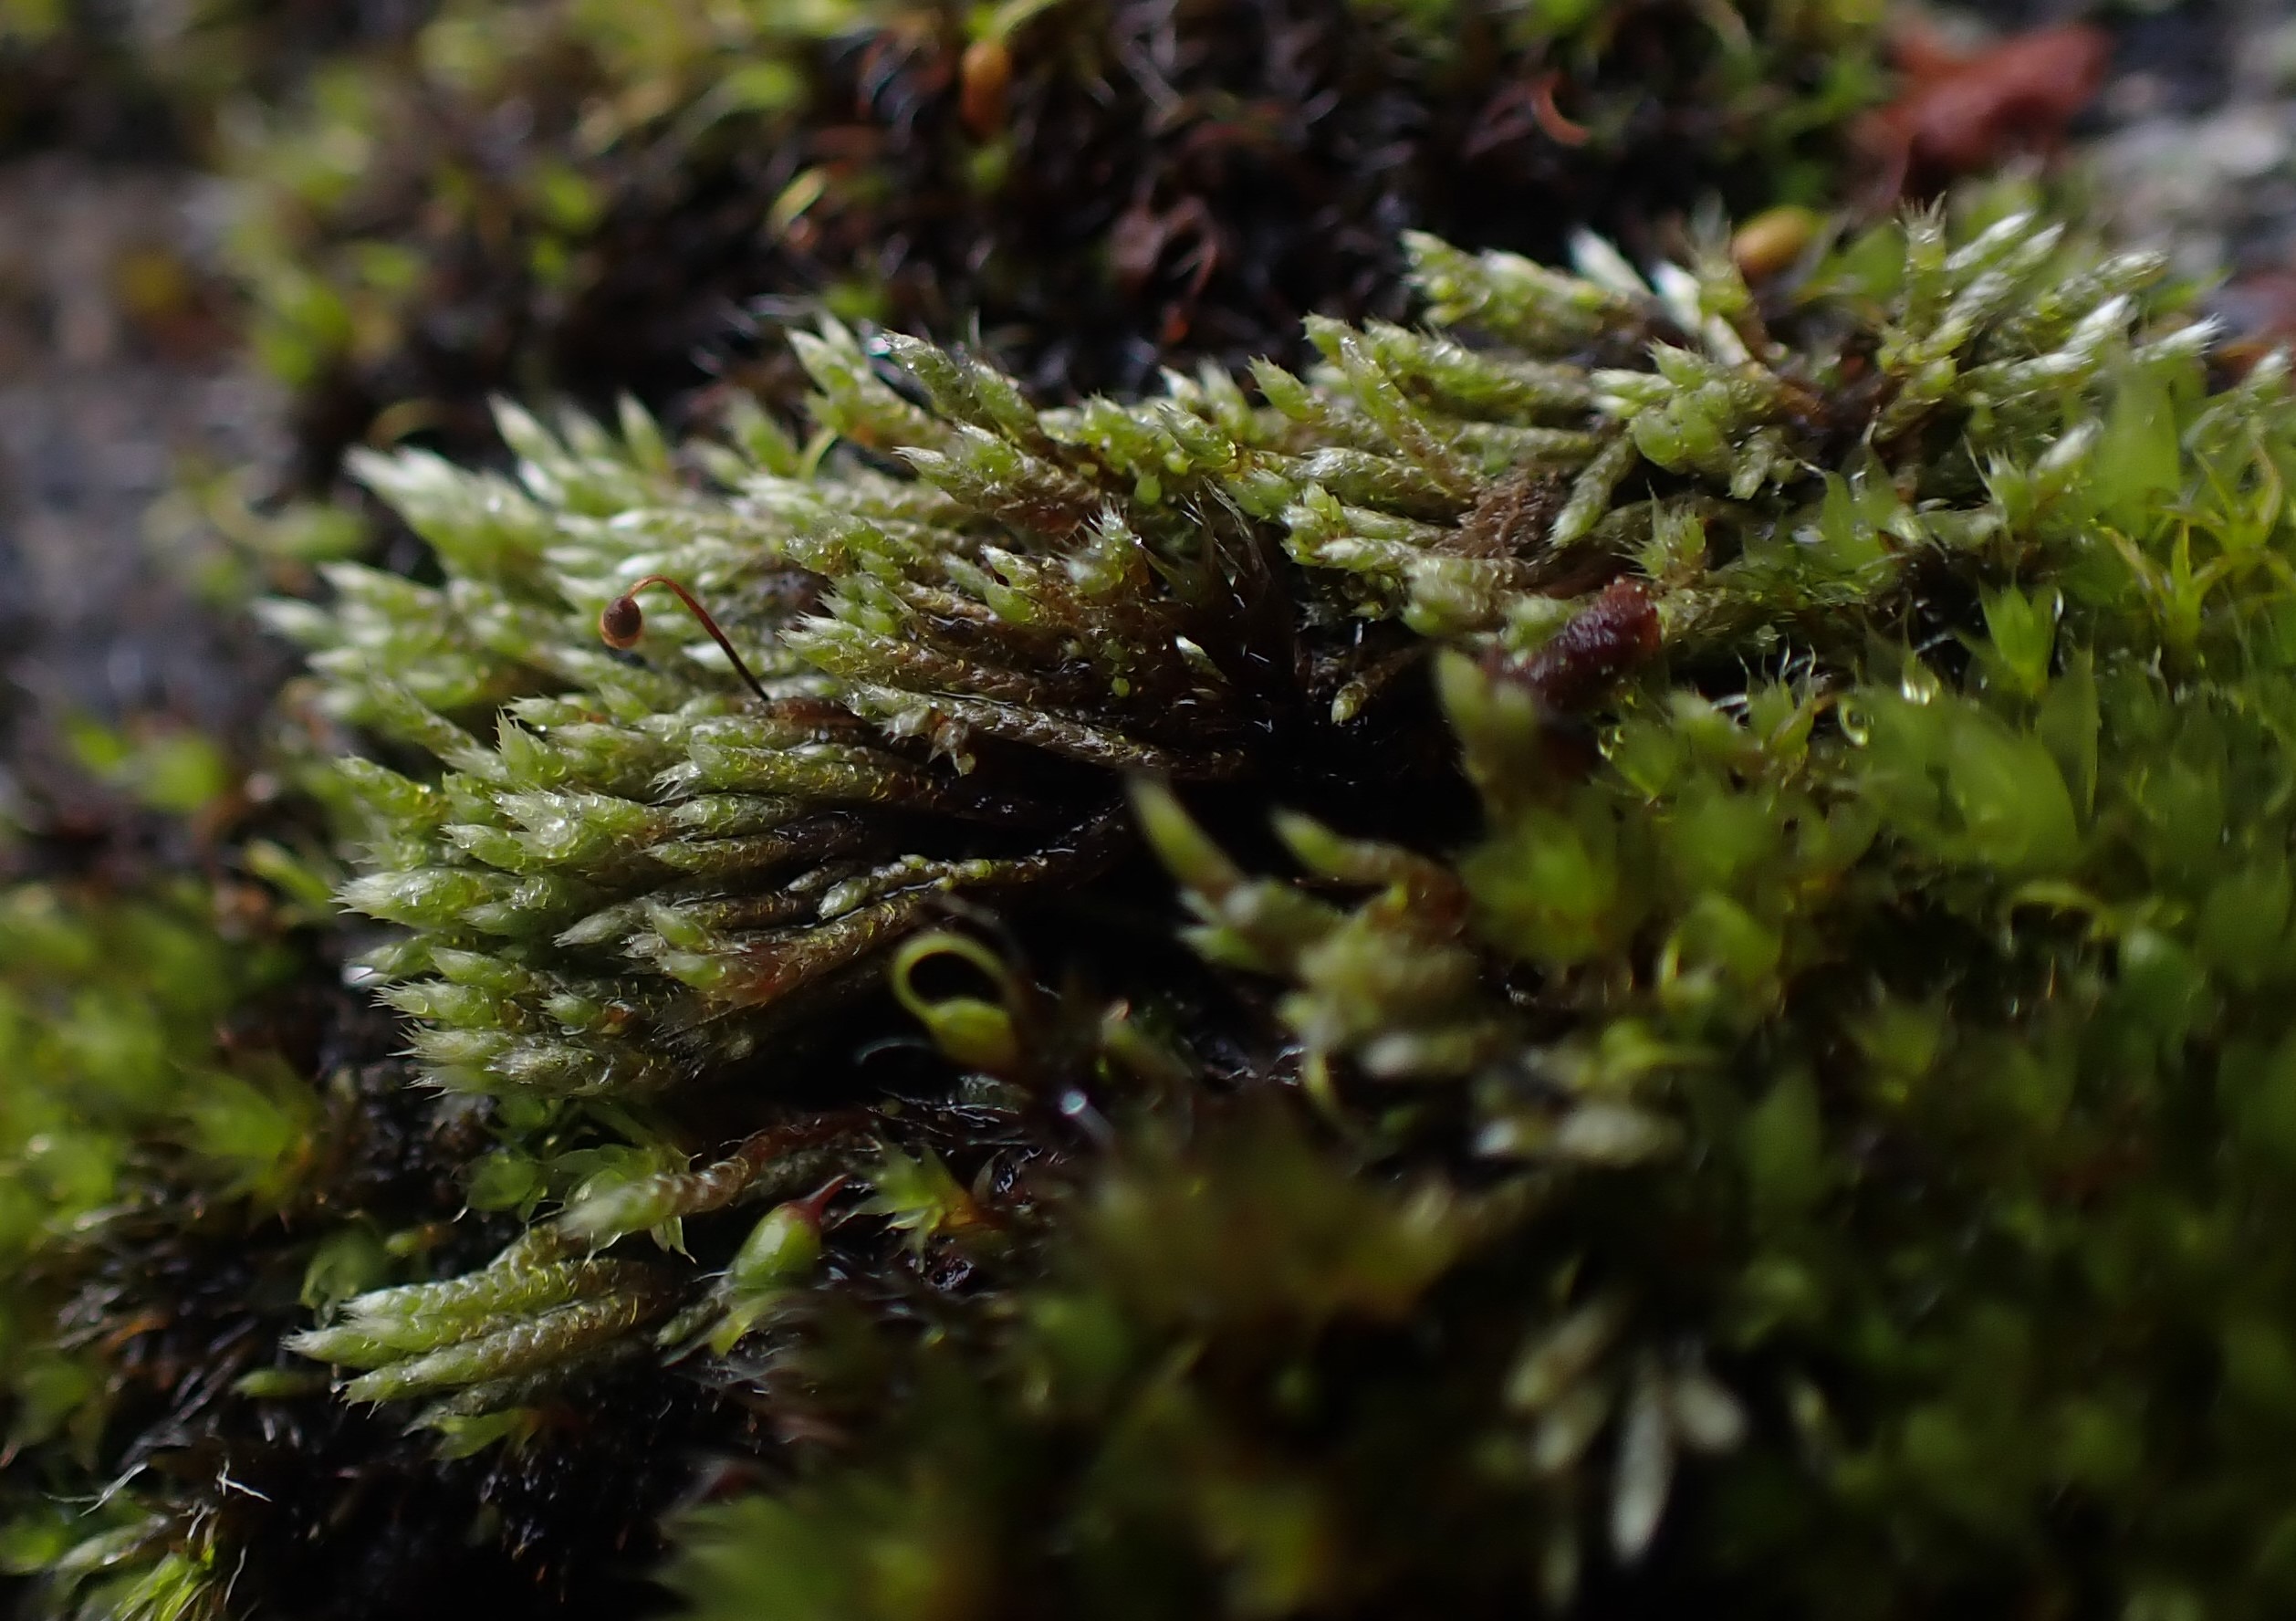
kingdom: Plantae
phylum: Bryophyta
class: Bryopsida
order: Bryales
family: Bryaceae
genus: Bryum
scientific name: Bryum argenteum
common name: Sølv-bryum
